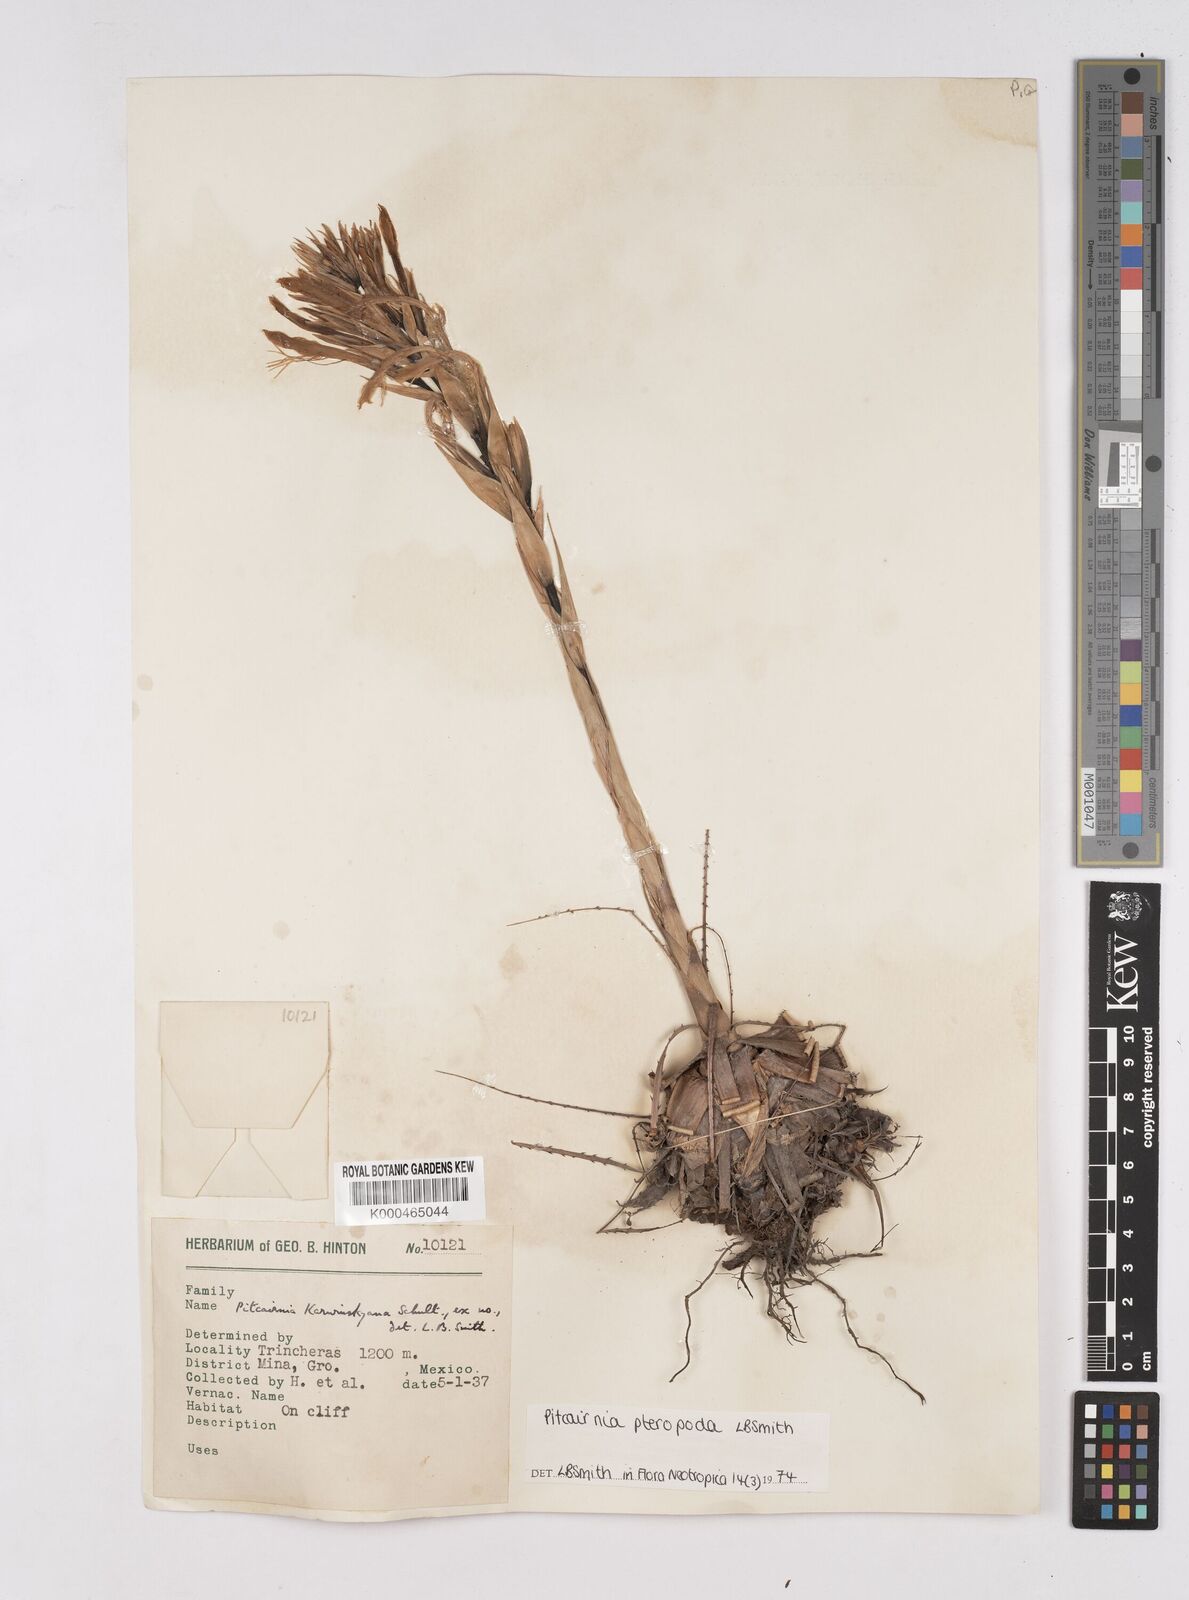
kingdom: Plantae
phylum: Tracheophyta
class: Liliopsida
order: Poales
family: Bromeliaceae
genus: Pitcairnia
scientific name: Pitcairnia pteropoda
